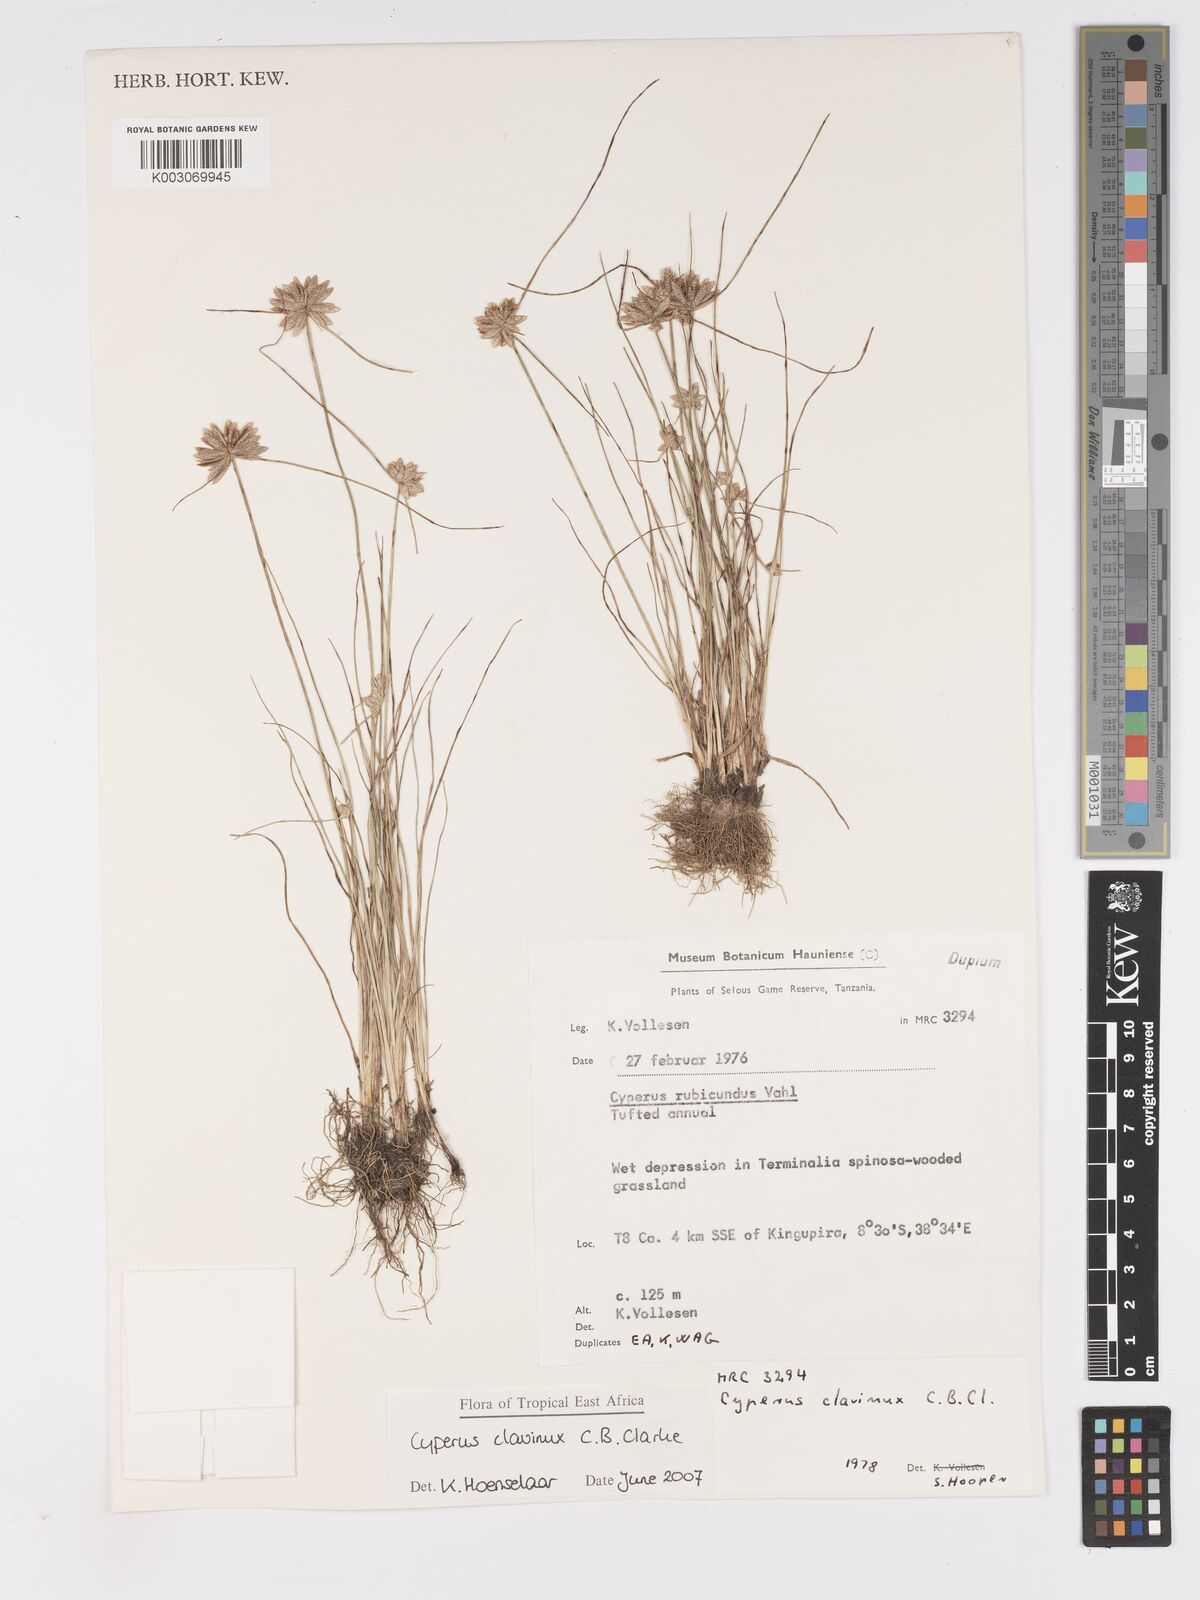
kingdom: Plantae
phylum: Tracheophyta
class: Liliopsida
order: Poales
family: Cyperaceae
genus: Cyperus
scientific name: Cyperus clavinux
